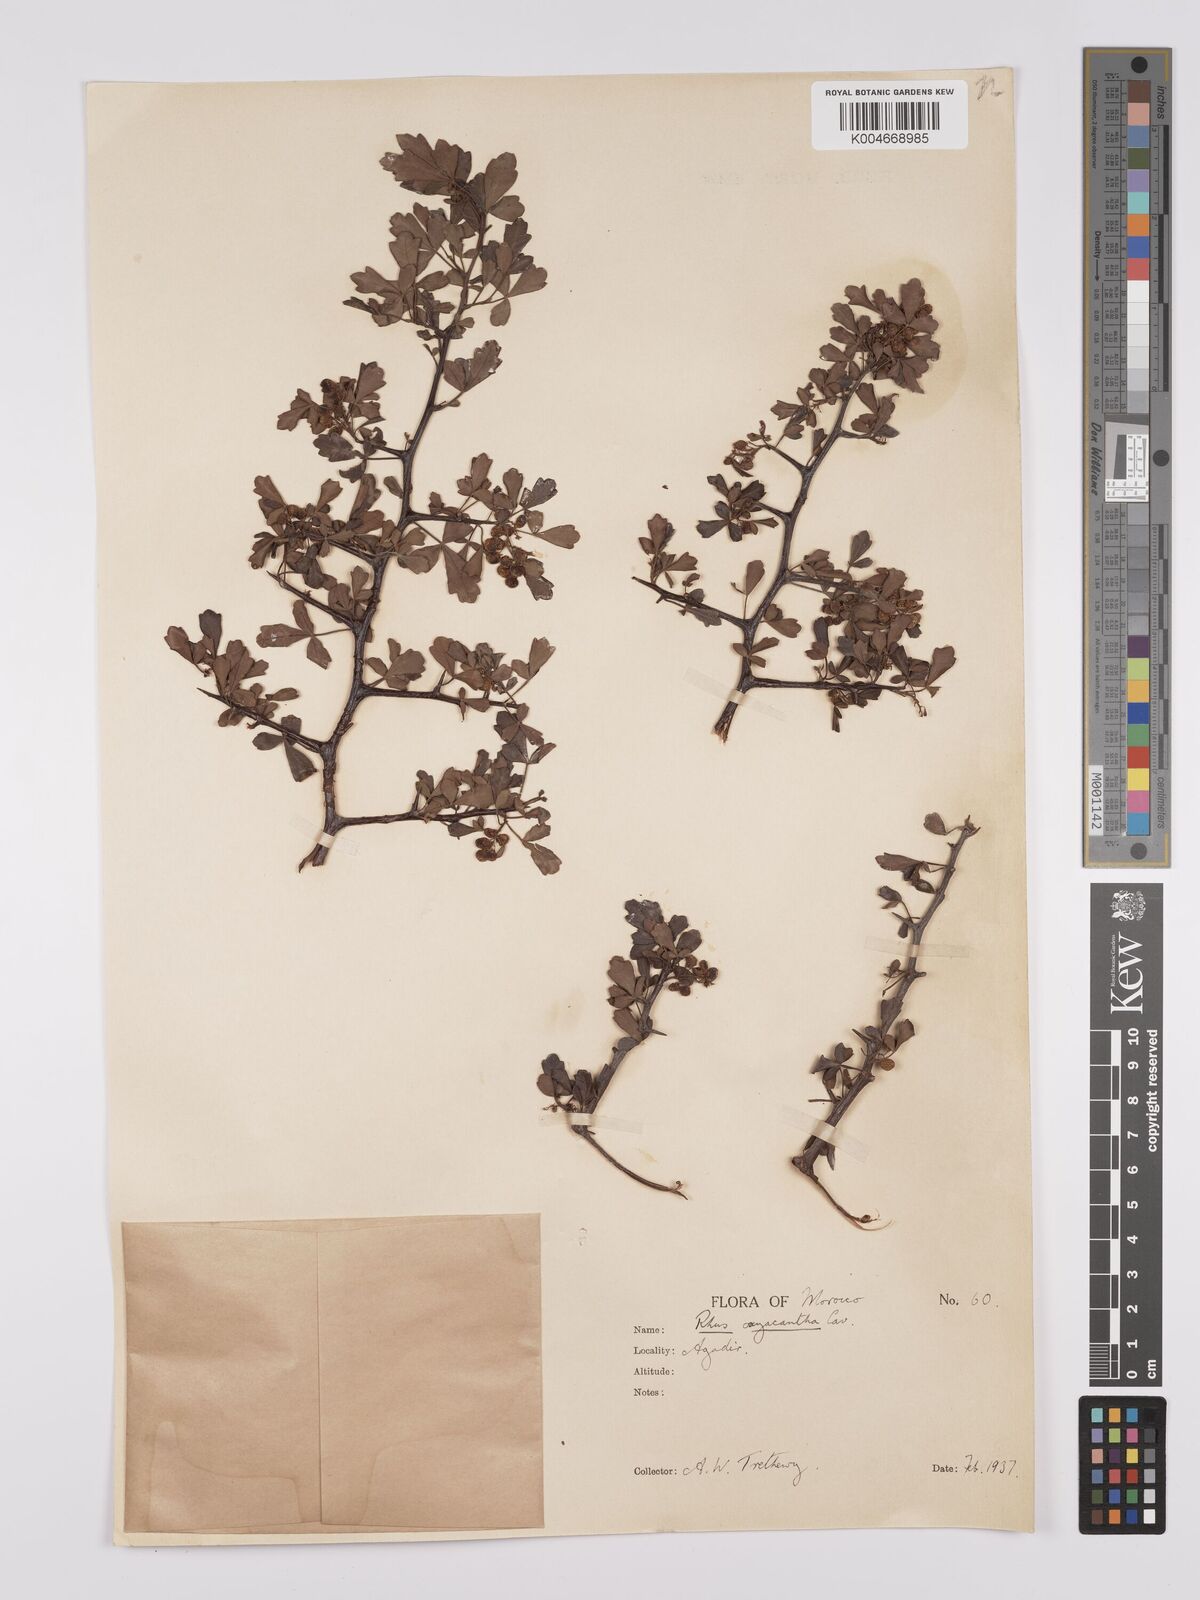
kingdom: Plantae
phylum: Tracheophyta
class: Magnoliopsida
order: Sapindales
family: Anacardiaceae
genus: Rhus
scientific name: Rhus
